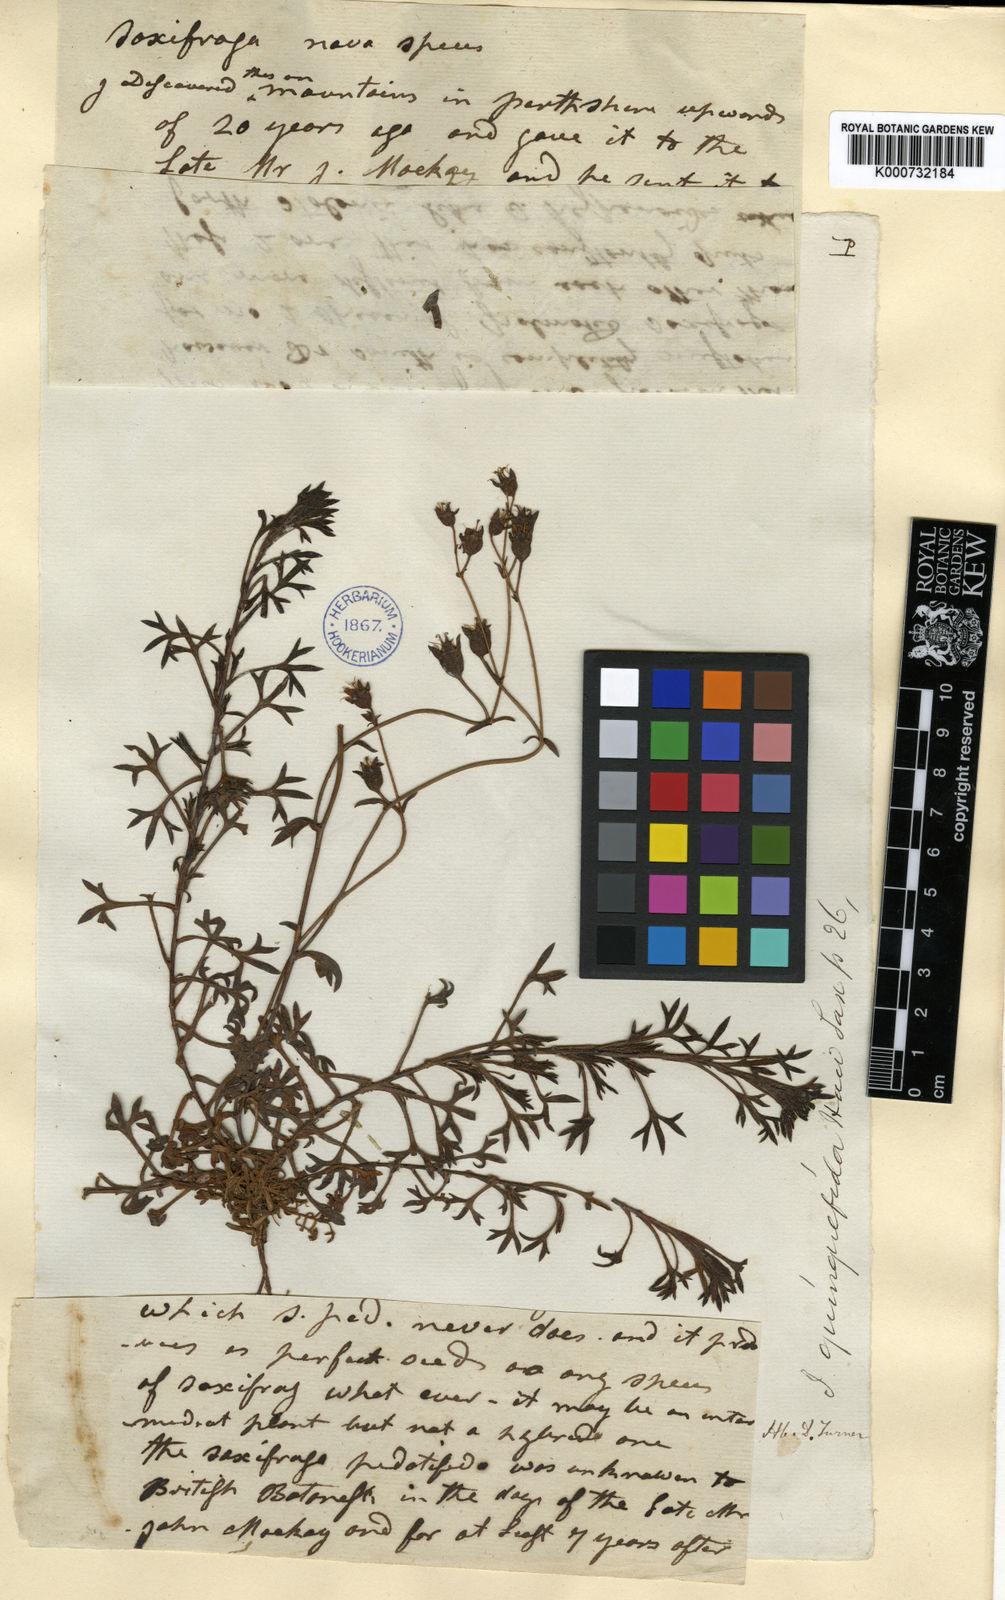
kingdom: Plantae
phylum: Tracheophyta
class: Magnoliopsida
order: Saxifragales
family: Saxifragaceae
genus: Saxifraga
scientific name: Saxifraga rosacea
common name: Irish saxifrage
